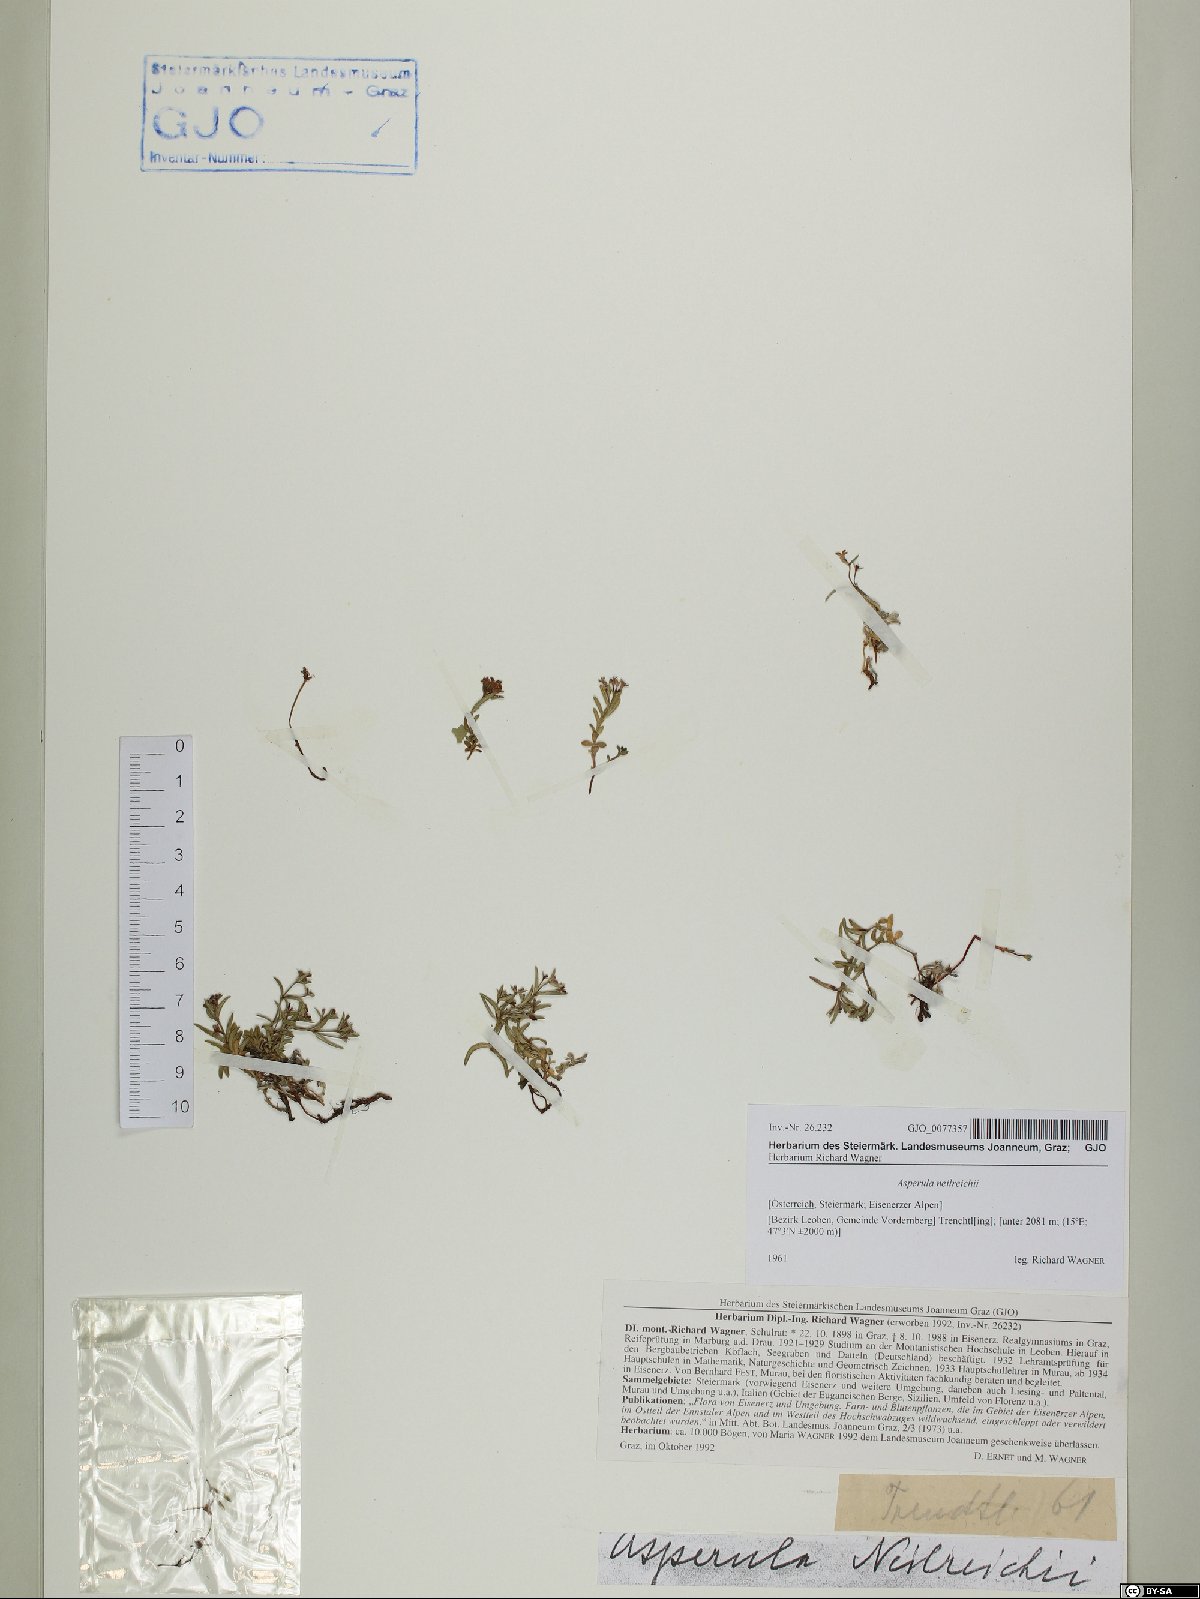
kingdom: Plantae
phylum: Tracheophyta
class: Magnoliopsida
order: Gentianales
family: Rubiaceae
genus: Cynanchica
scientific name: Cynanchica neilreichii
